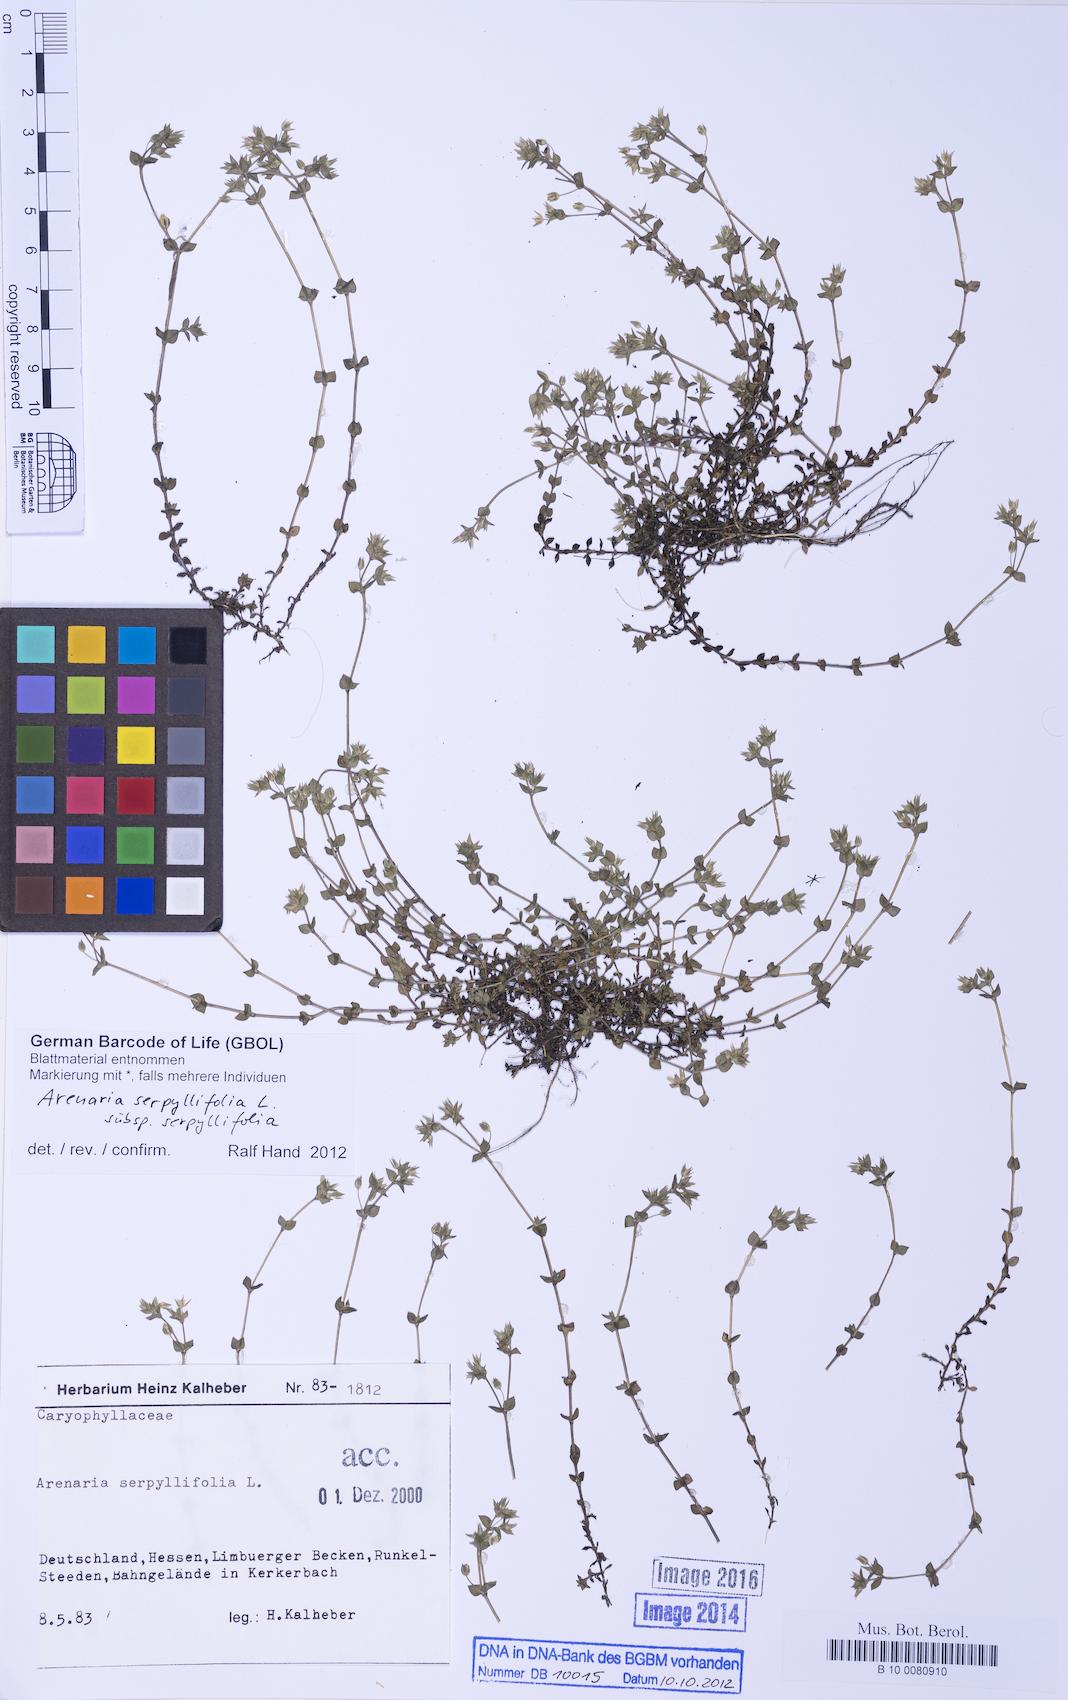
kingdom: Plantae
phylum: Tracheophyta
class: Magnoliopsida
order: Caryophyllales
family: Caryophyllaceae
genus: Arenaria
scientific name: Arenaria serpyllifolia
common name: Thyme-leaved sandwort
